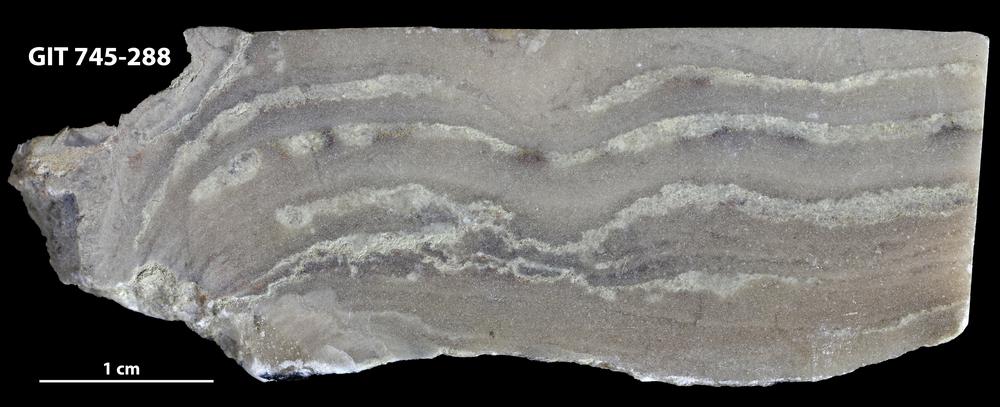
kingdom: Animalia
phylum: Porifera
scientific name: Porifera
